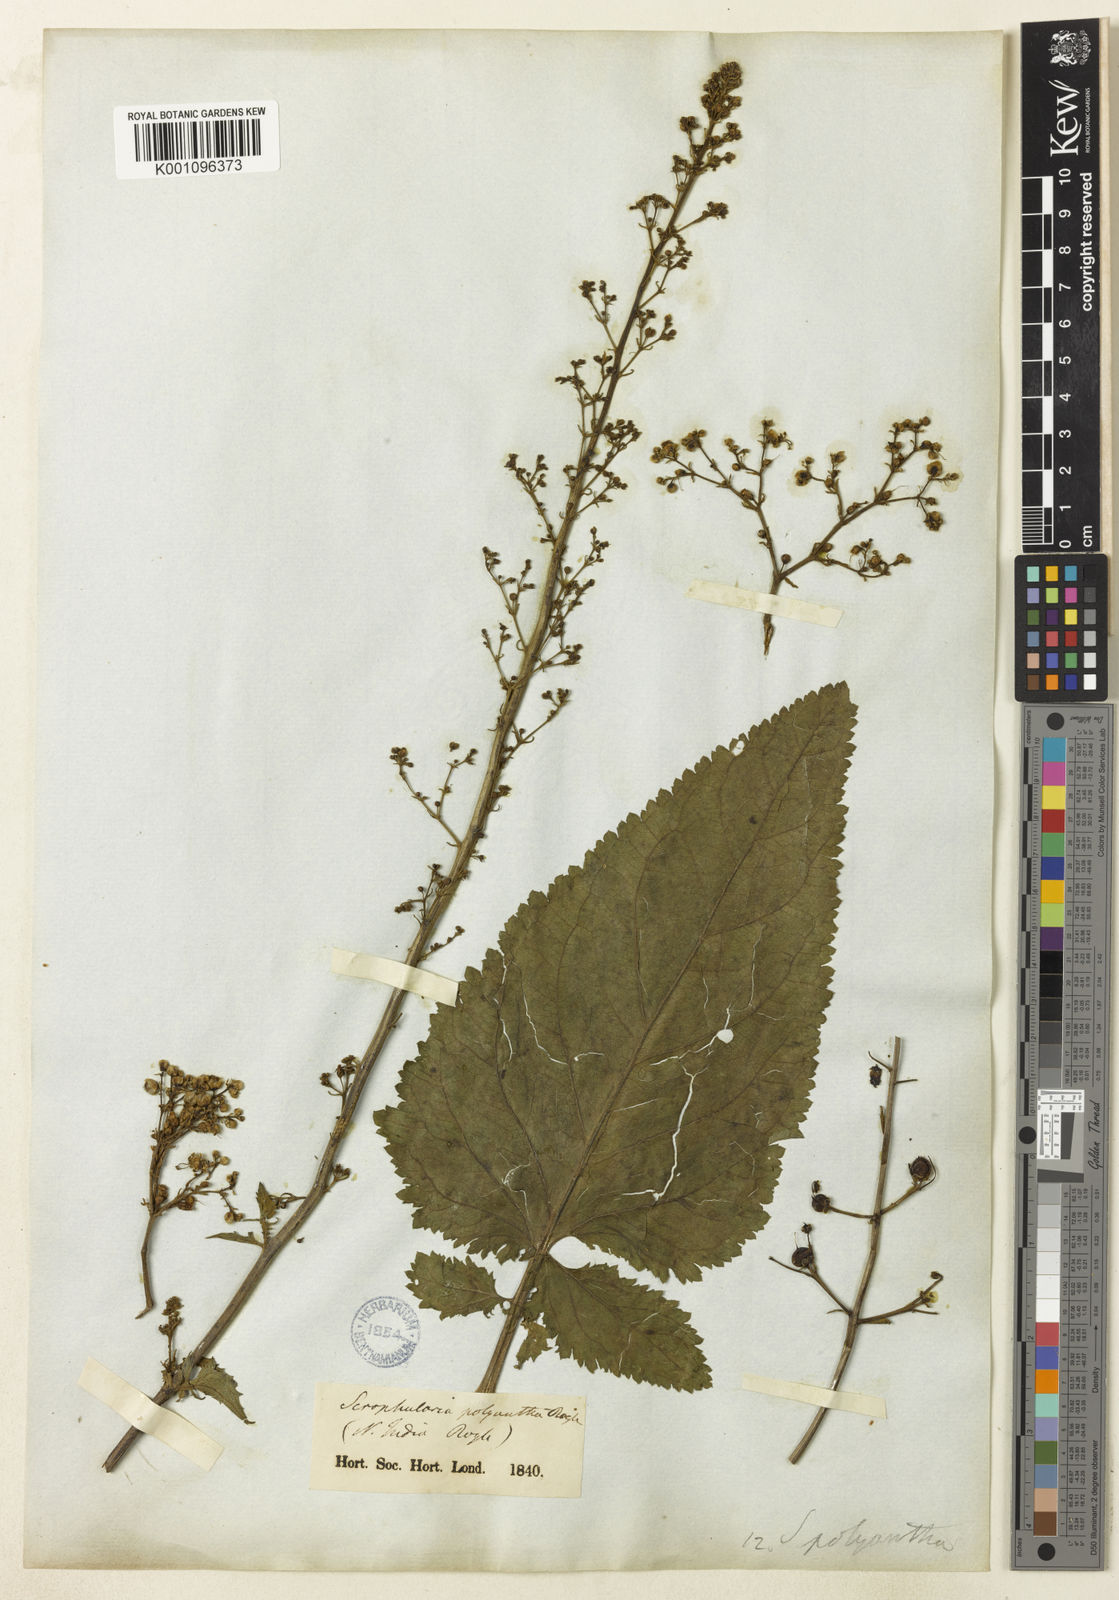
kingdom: Plantae
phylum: Tracheophyta
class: Magnoliopsida
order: Lamiales
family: Scrophulariaceae
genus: Scrophularia
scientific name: Scrophularia polyantha
